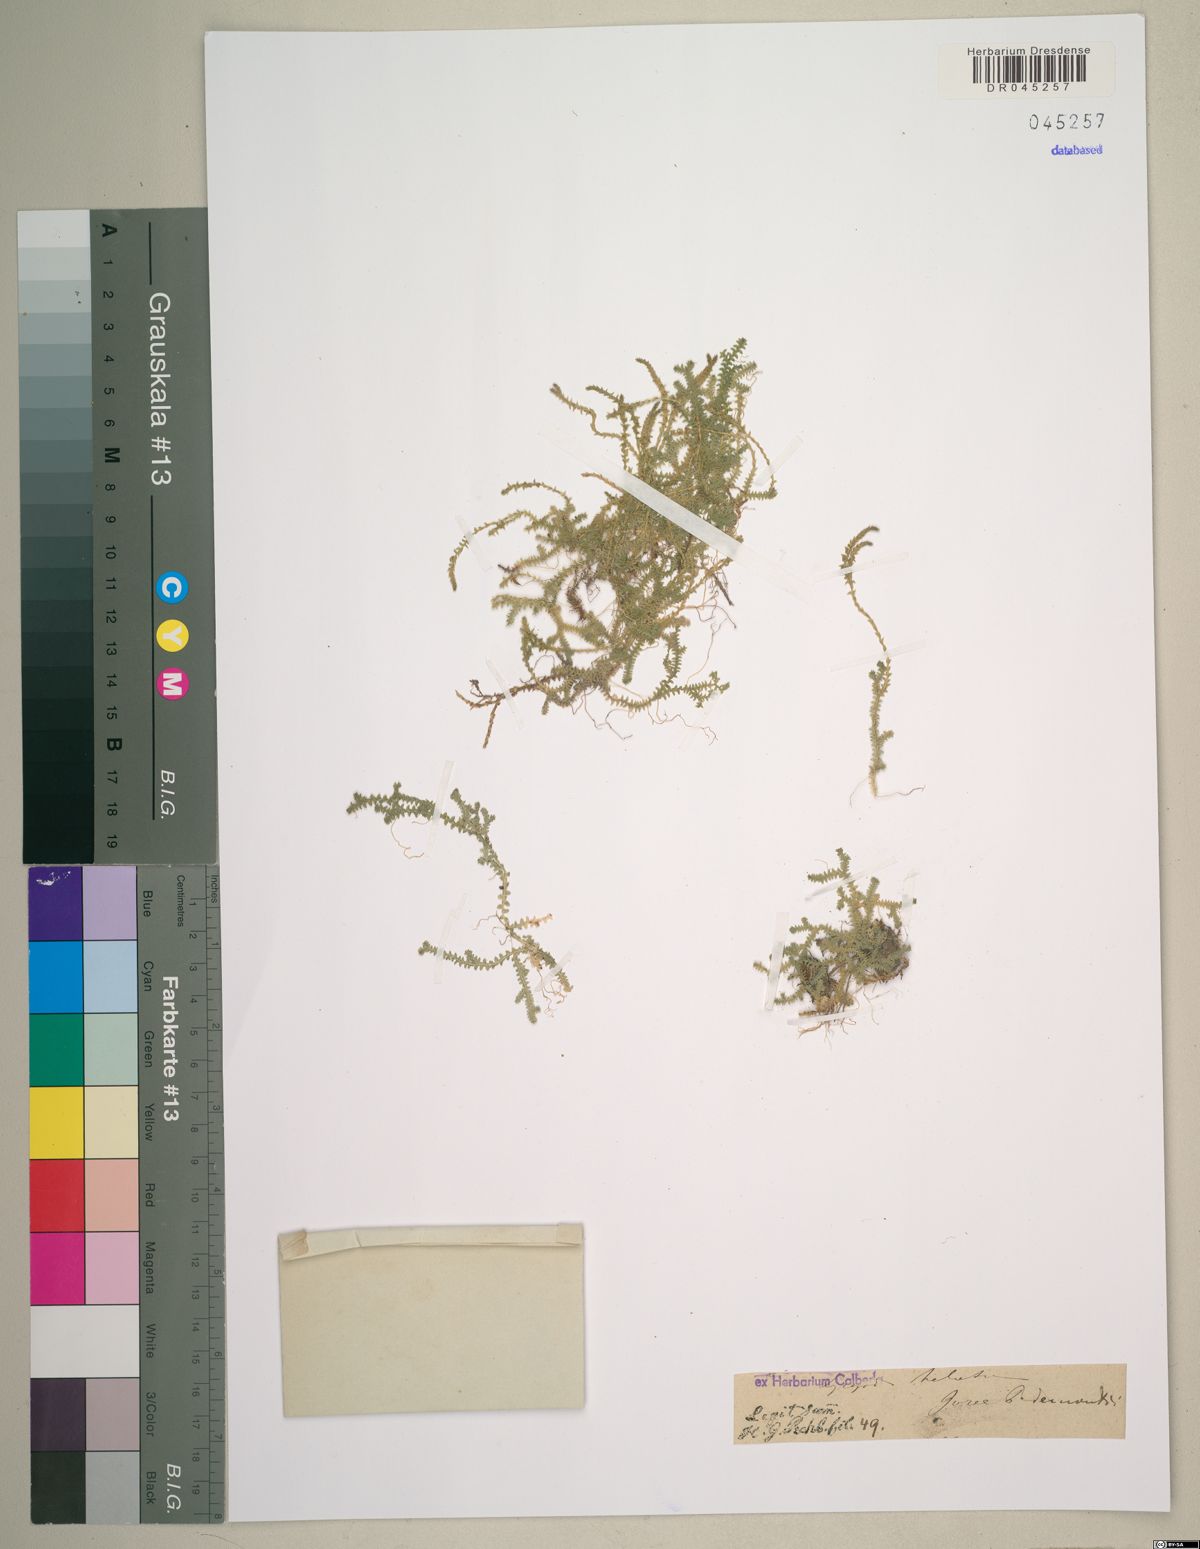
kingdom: Plantae
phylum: Tracheophyta
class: Lycopodiopsida
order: Selaginellales
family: Selaginellaceae
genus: Selaginella
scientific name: Selaginella helvetica
